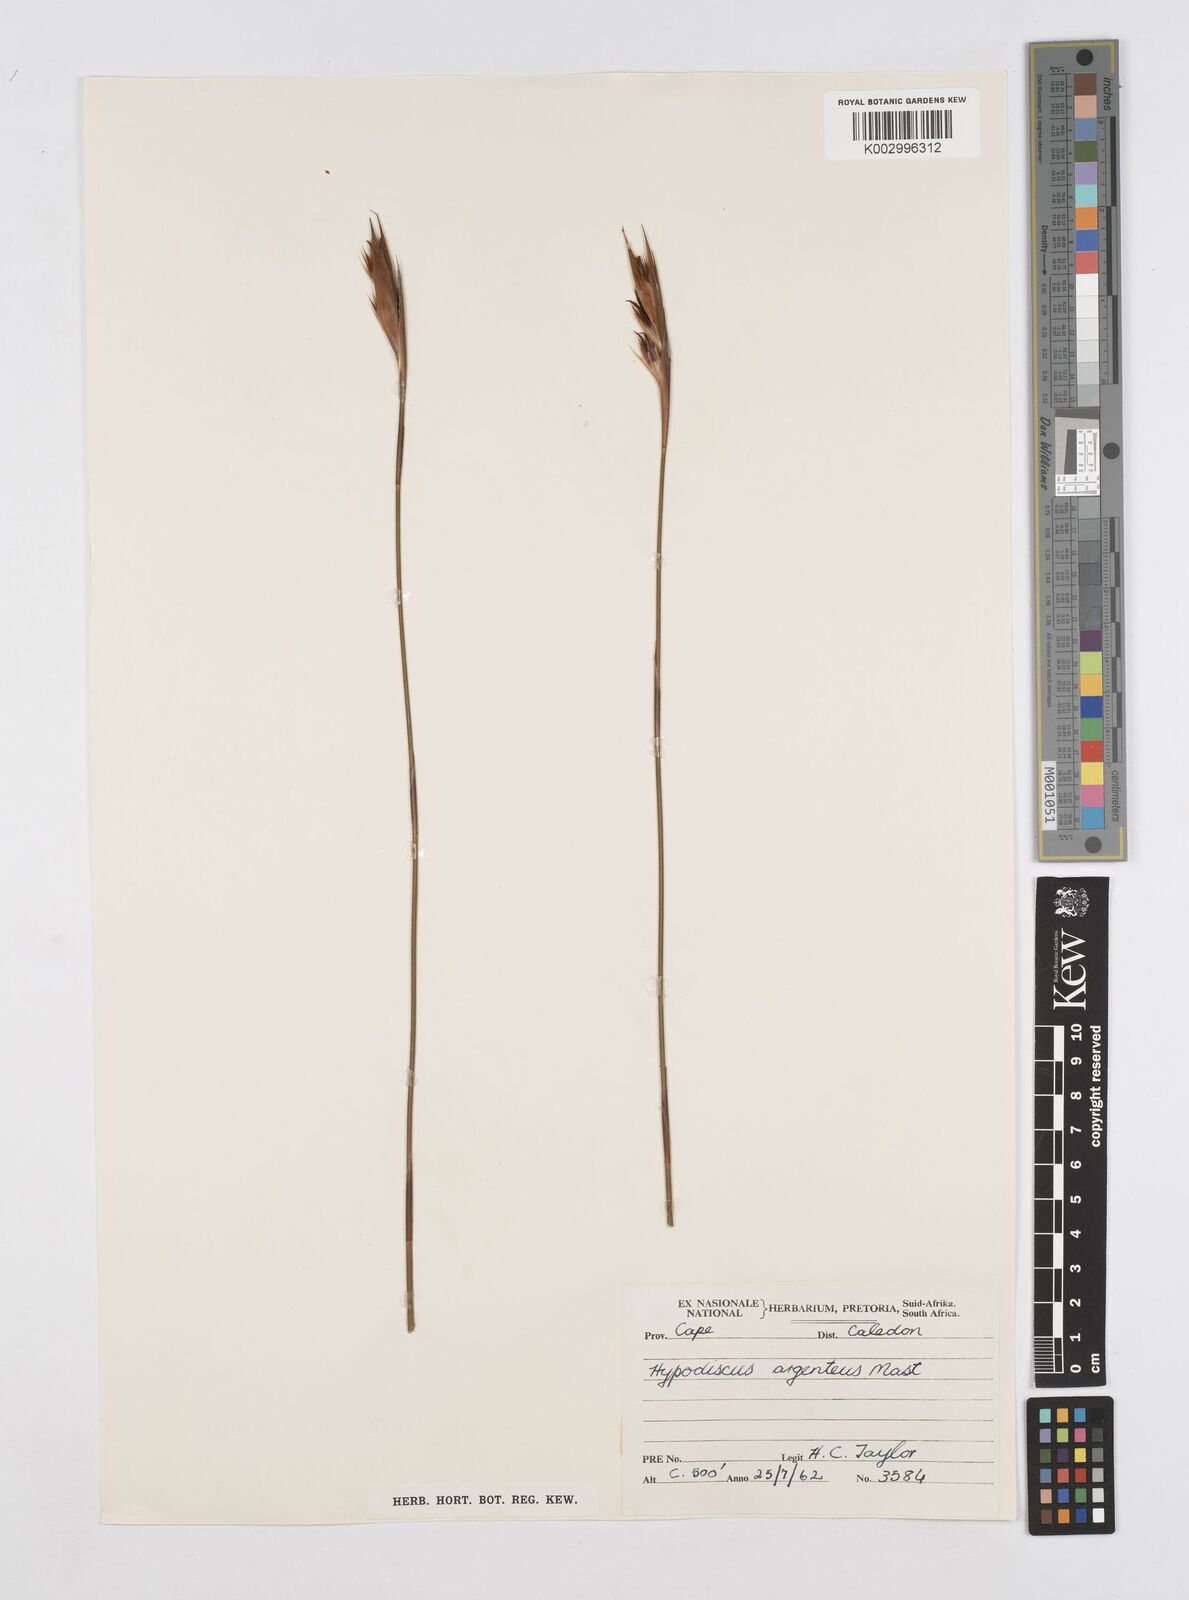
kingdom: Plantae
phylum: Tracheophyta
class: Liliopsida
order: Poales
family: Restionaceae
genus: Hypodiscus
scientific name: Hypodiscus argenteus
